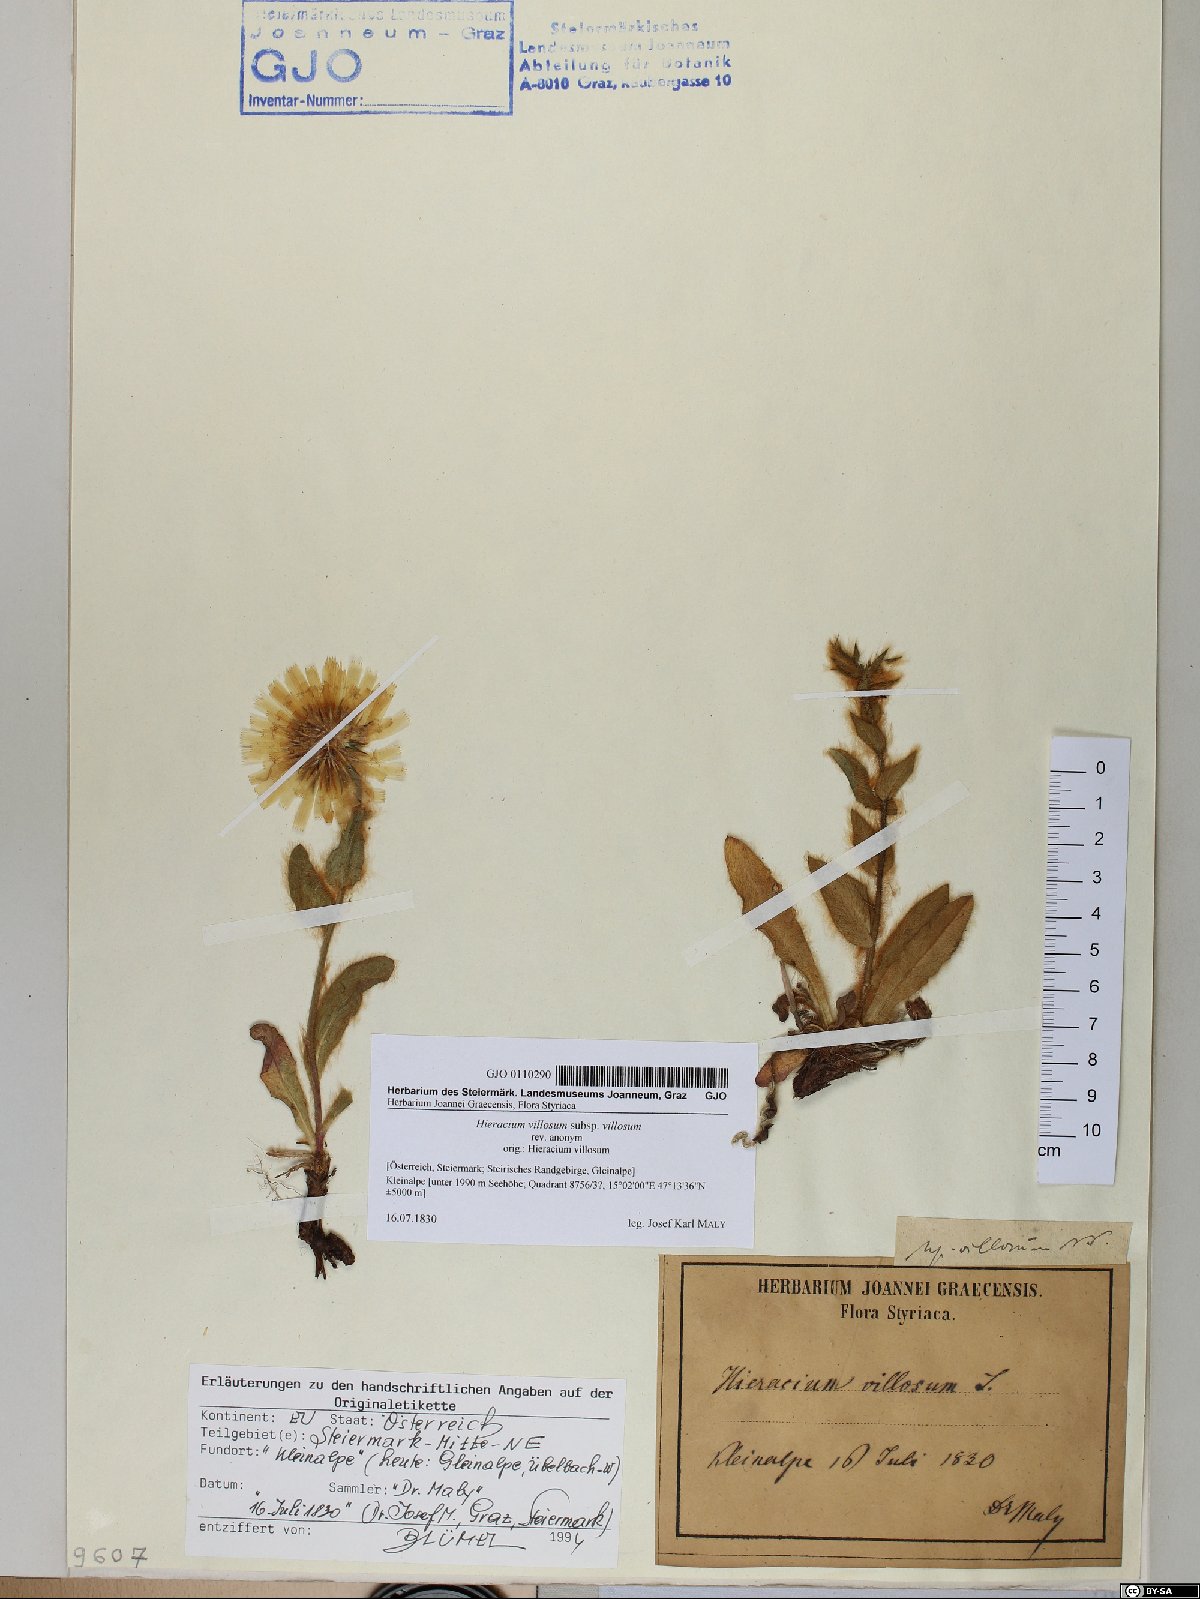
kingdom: Plantae
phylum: Tracheophyta
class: Magnoliopsida
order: Asterales
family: Asteraceae
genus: Hieracium
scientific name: Hieracium villosum
